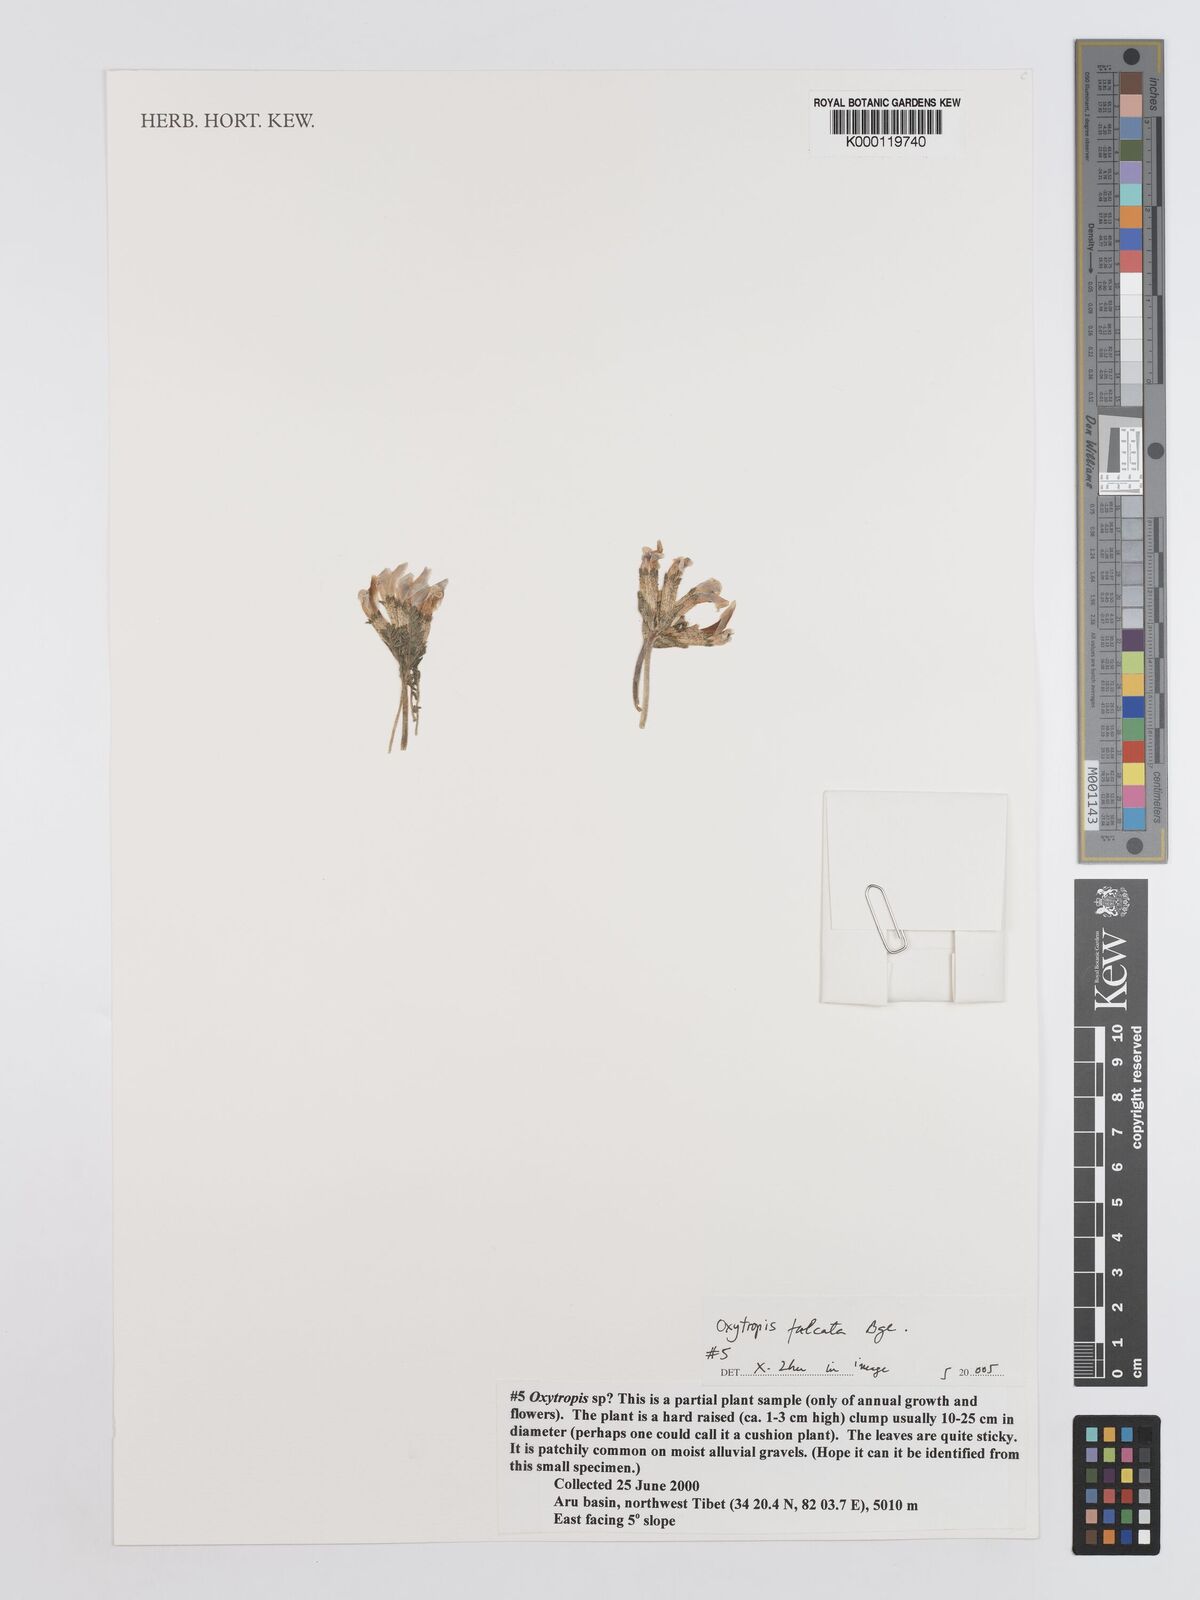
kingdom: Plantae
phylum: Tracheophyta
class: Magnoliopsida
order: Fabales
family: Fabaceae
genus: Oxytropis
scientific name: Oxytropis falcata
